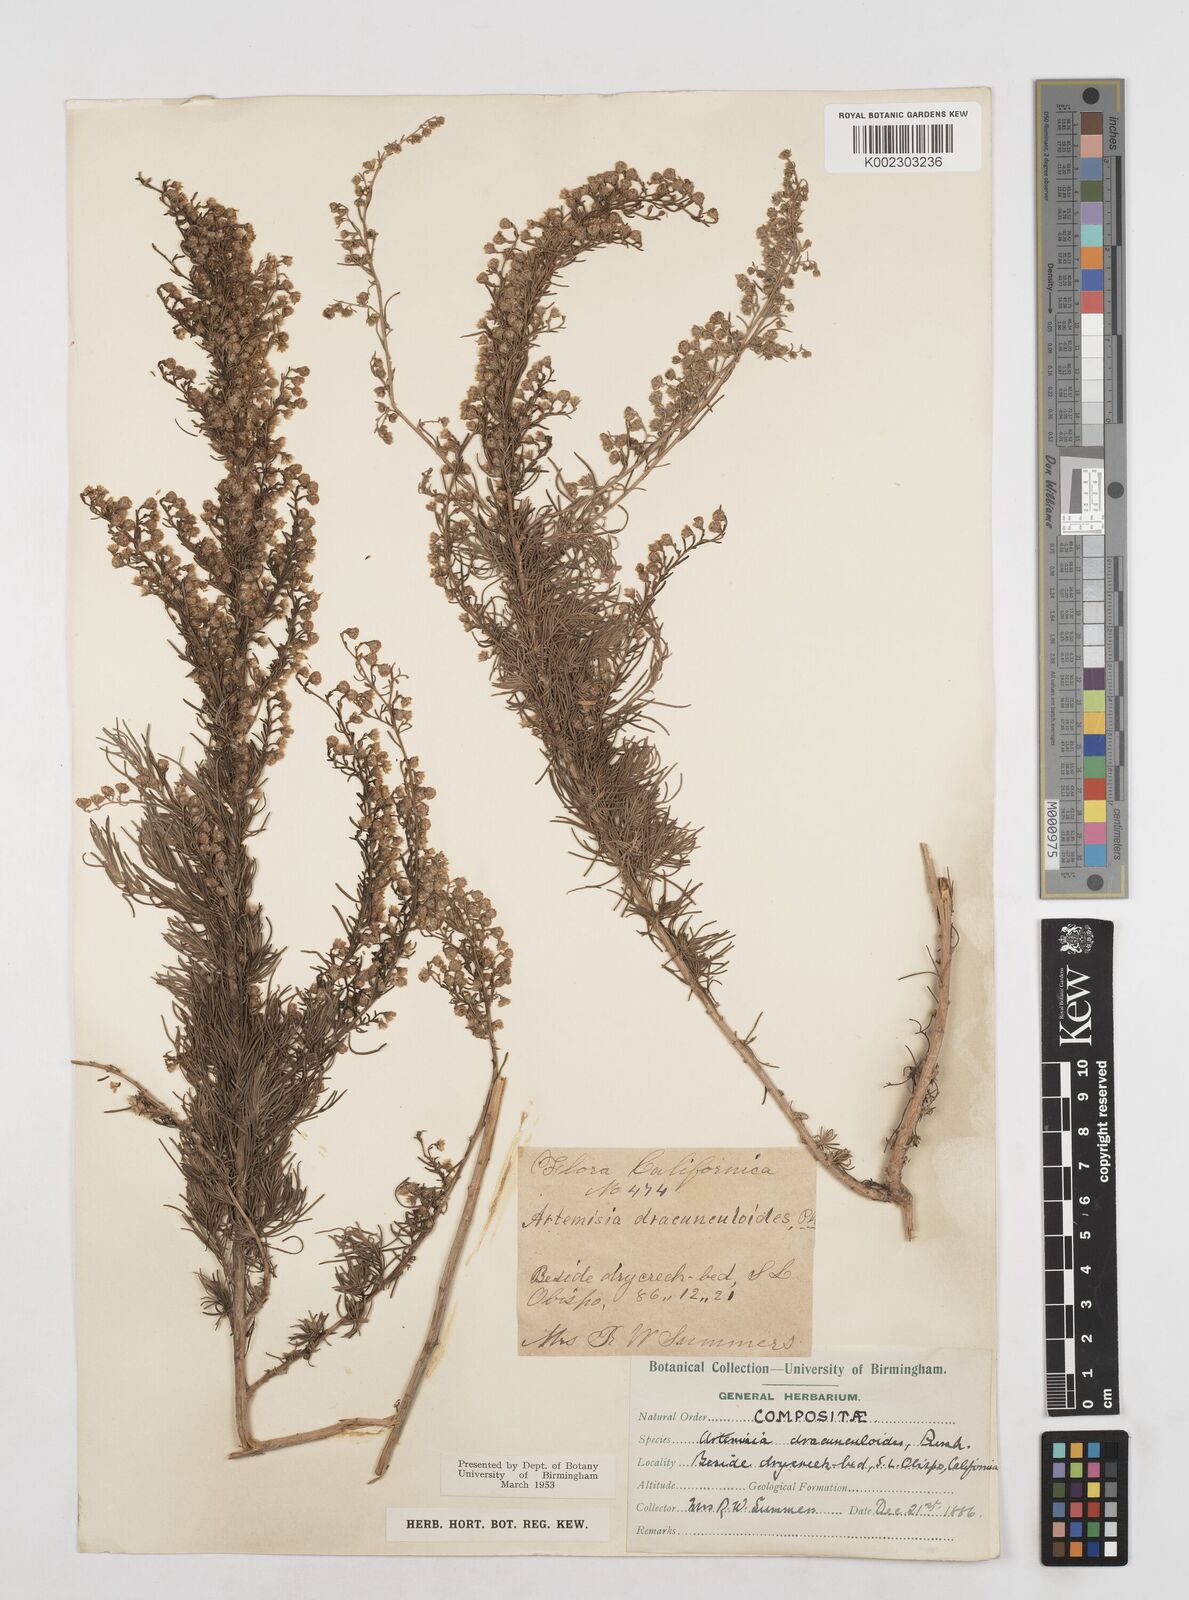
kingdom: Plantae
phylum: Tracheophyta
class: Magnoliopsida
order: Asterales
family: Asteraceae
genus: Artemisia
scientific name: Artemisia dracunculus
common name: Tarragon
